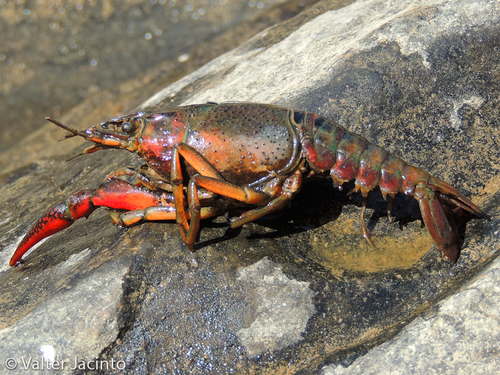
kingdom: Animalia
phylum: Arthropoda
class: Malacostraca
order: Decapoda
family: Cambaridae
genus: Procambarus
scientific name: Procambarus clarkii
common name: Red swamp crayfish
